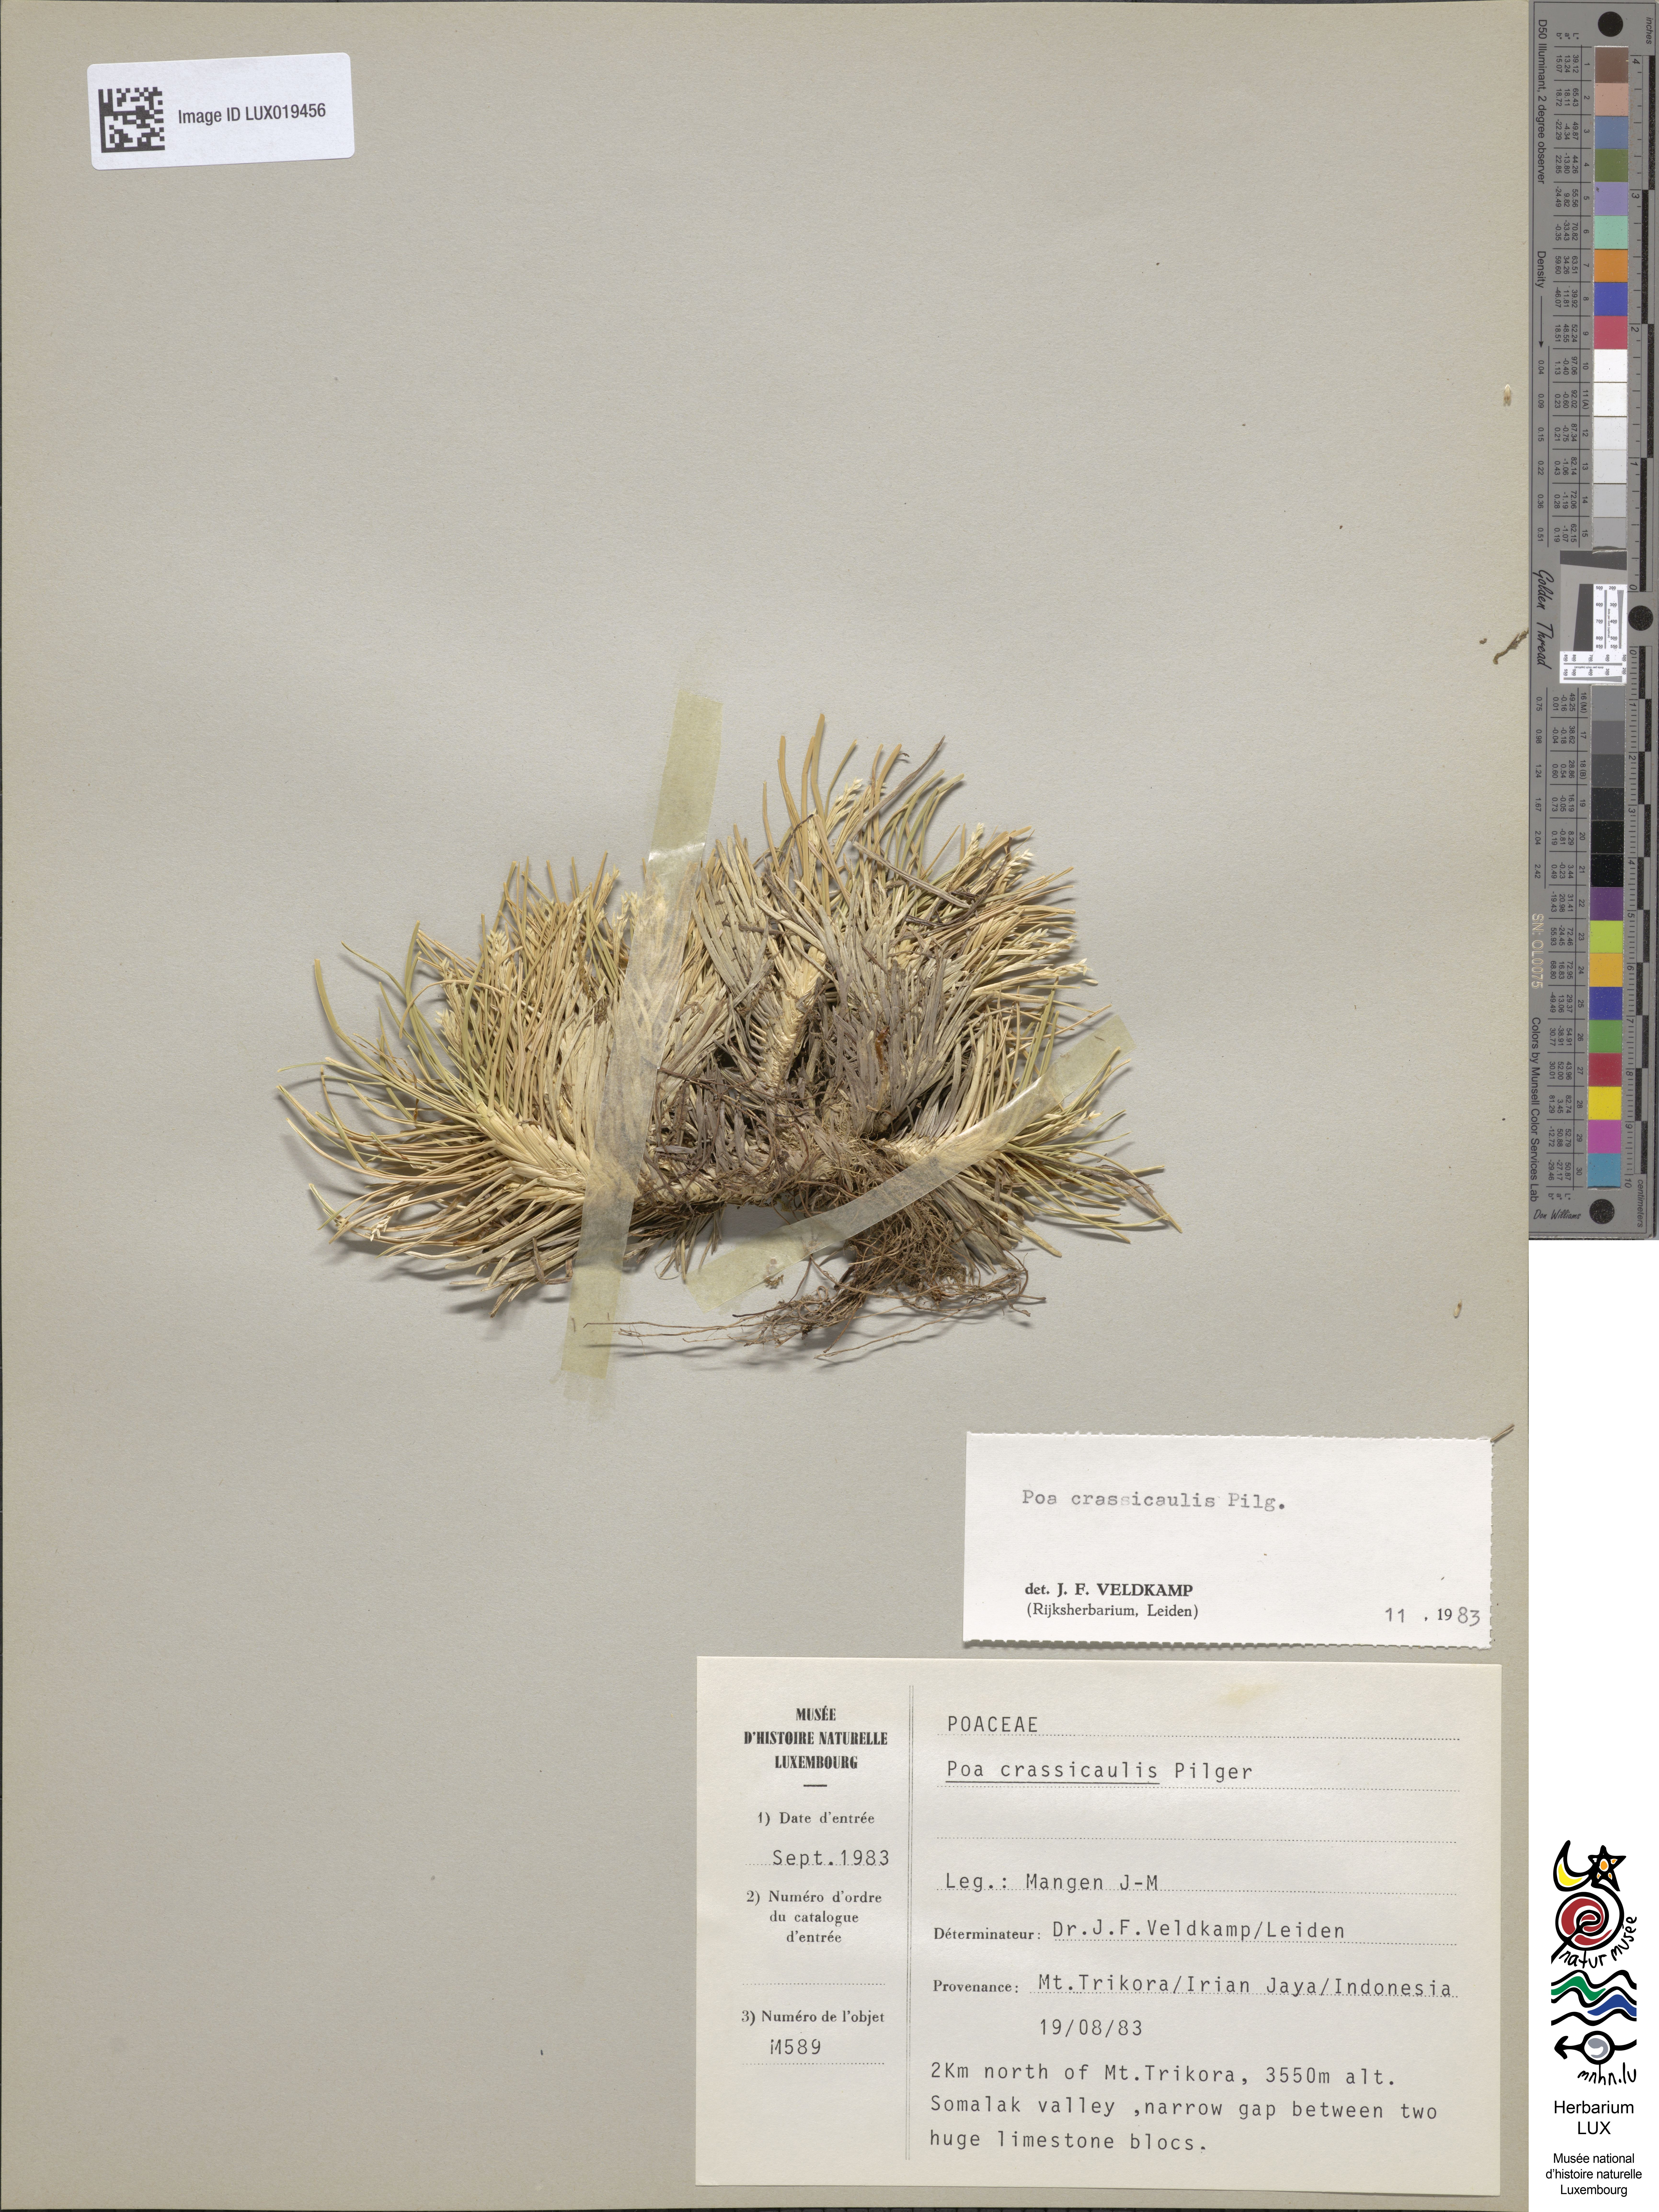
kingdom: Plantae
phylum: Tracheophyta
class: Liliopsida
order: Poales
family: Poaceae
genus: Poa
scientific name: Poa crassicaulis
